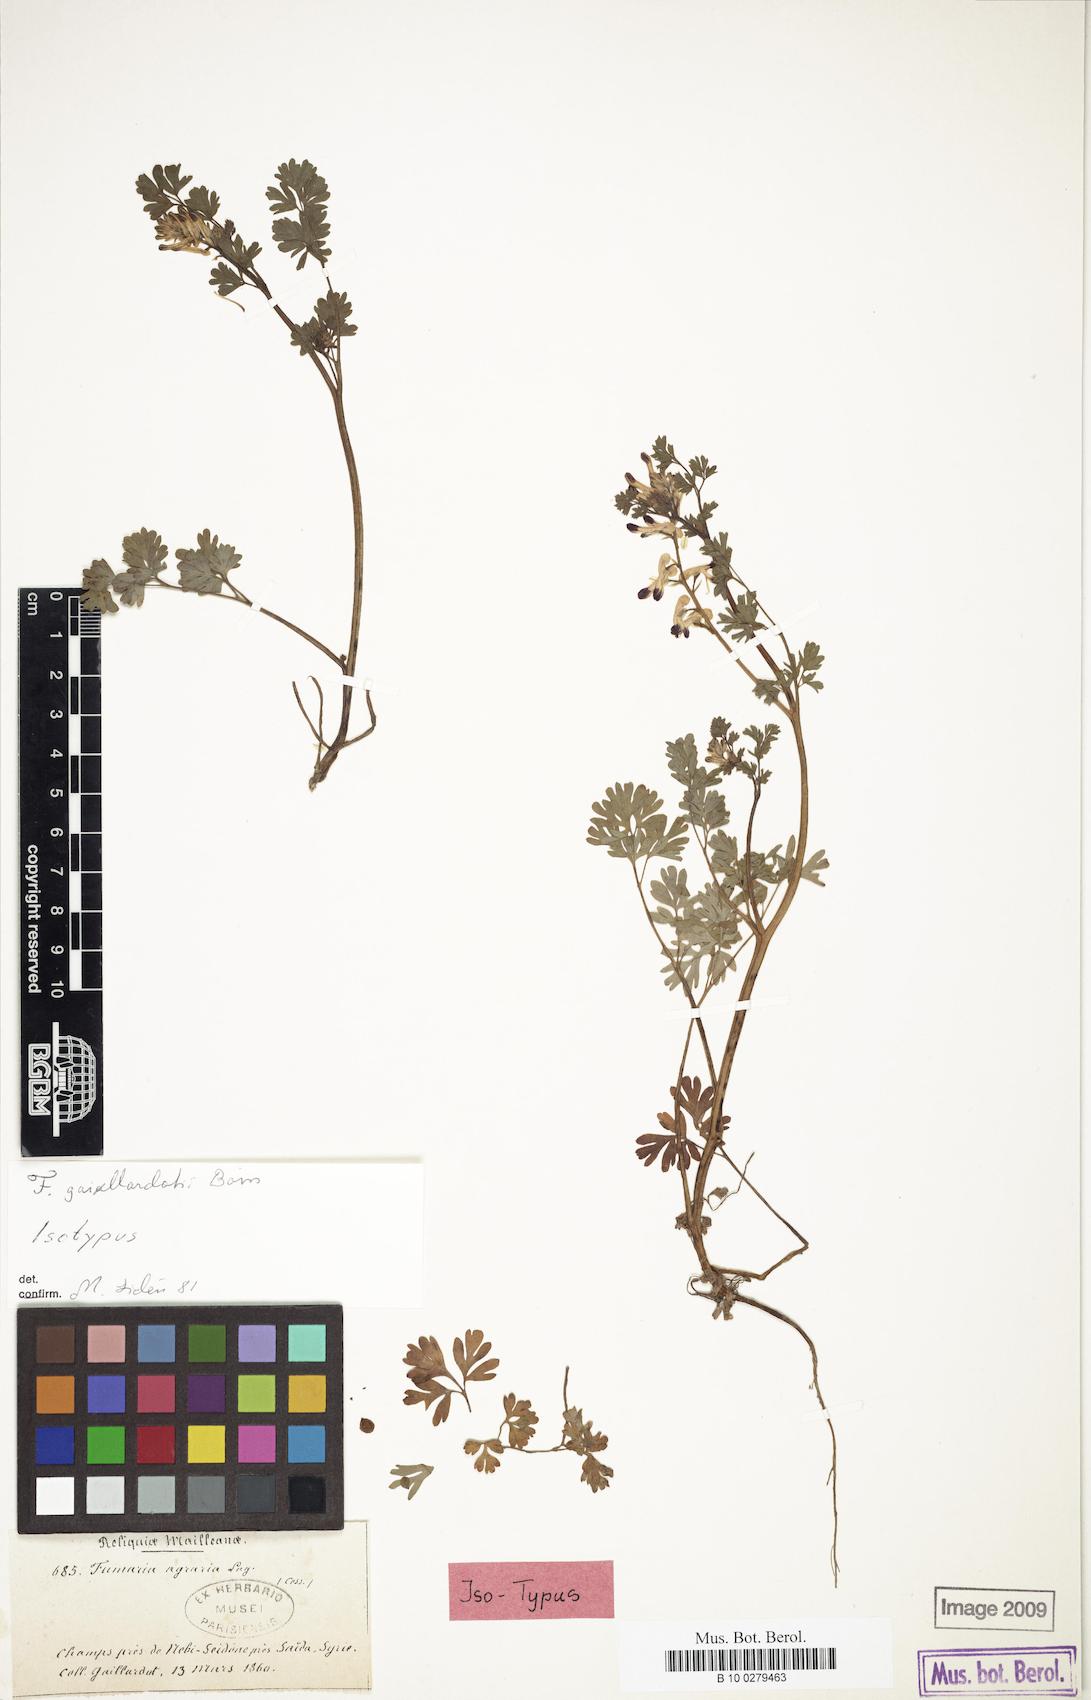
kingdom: Plantae
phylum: Tracheophyta
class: Magnoliopsida
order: Ranunculales
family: Papaveraceae
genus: Fumaria
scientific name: Fumaria gaillardotii
